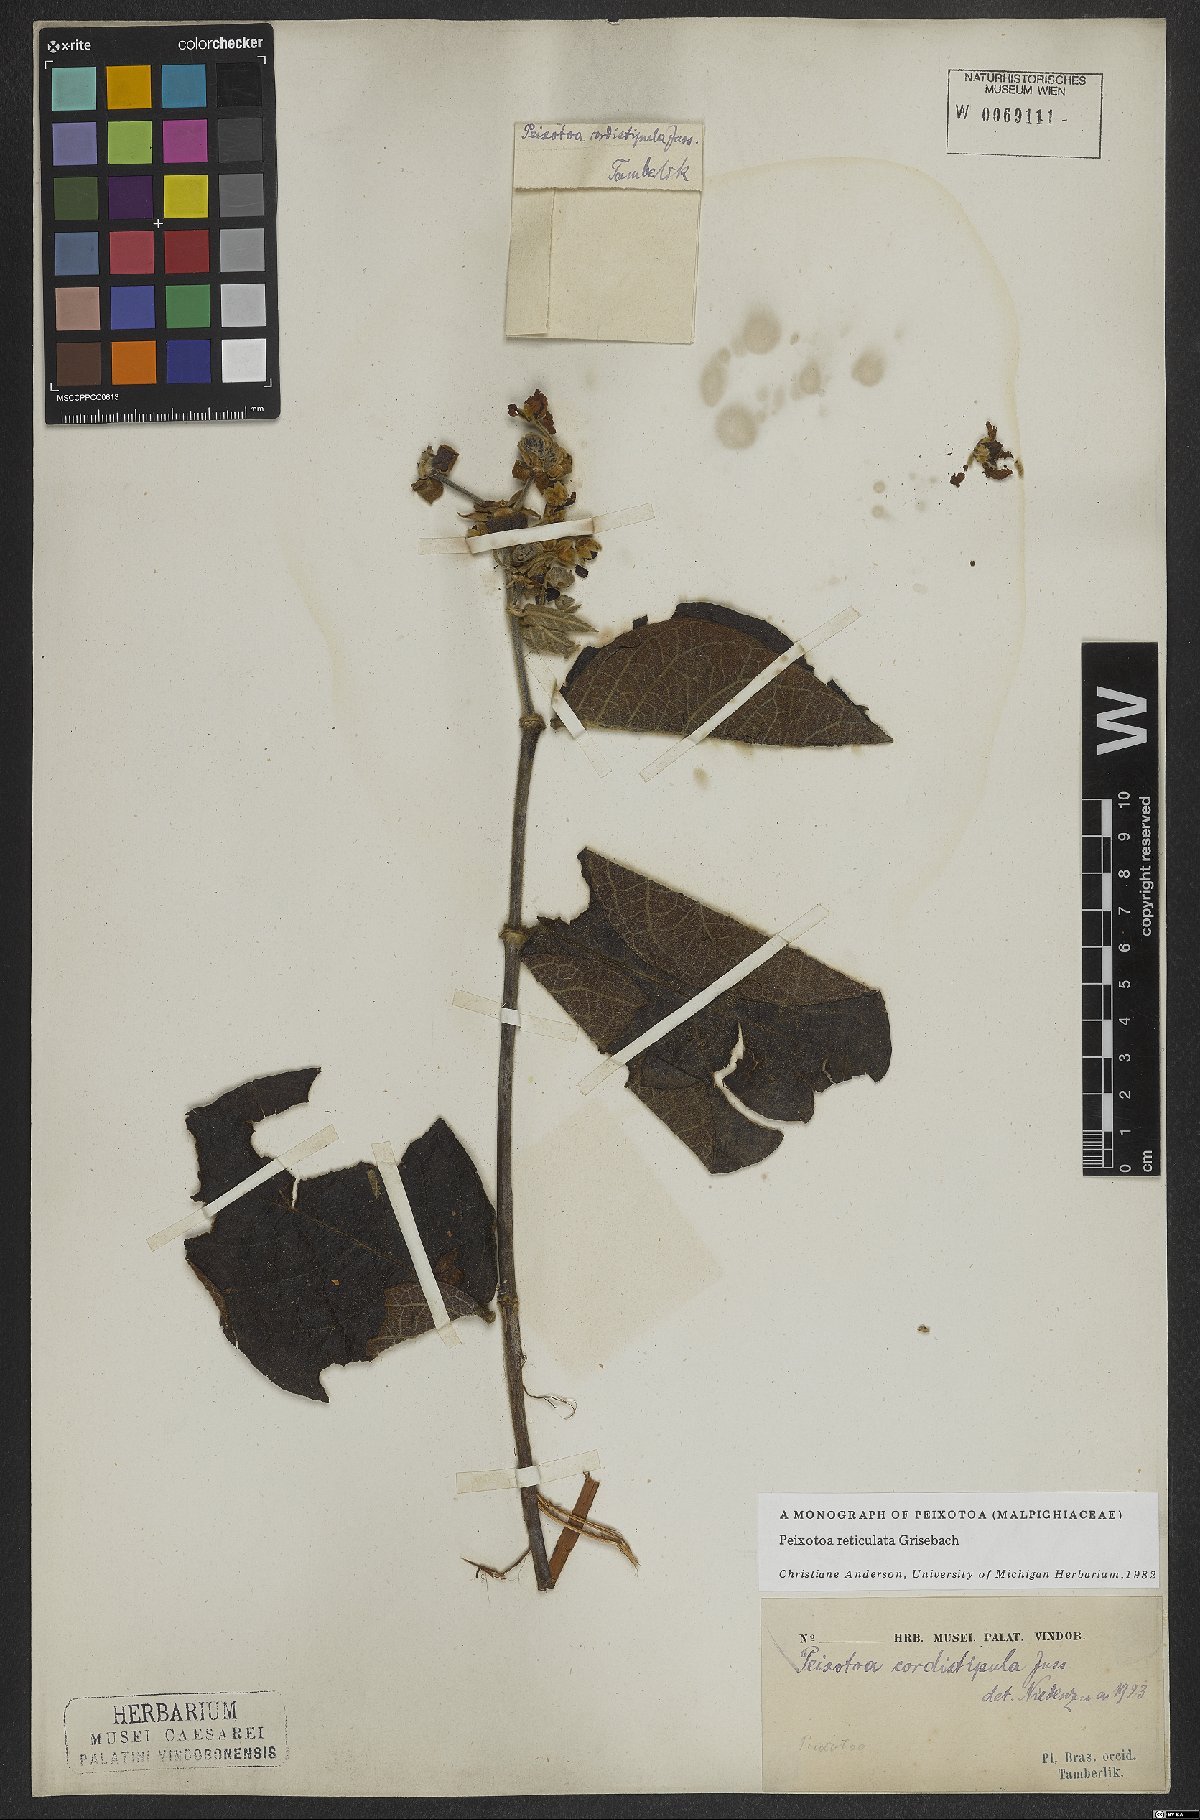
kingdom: Plantae
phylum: Tracheophyta
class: Magnoliopsida
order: Malpighiales
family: Malpighiaceae
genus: Peixotoa
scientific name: Peixotoa reticulata
